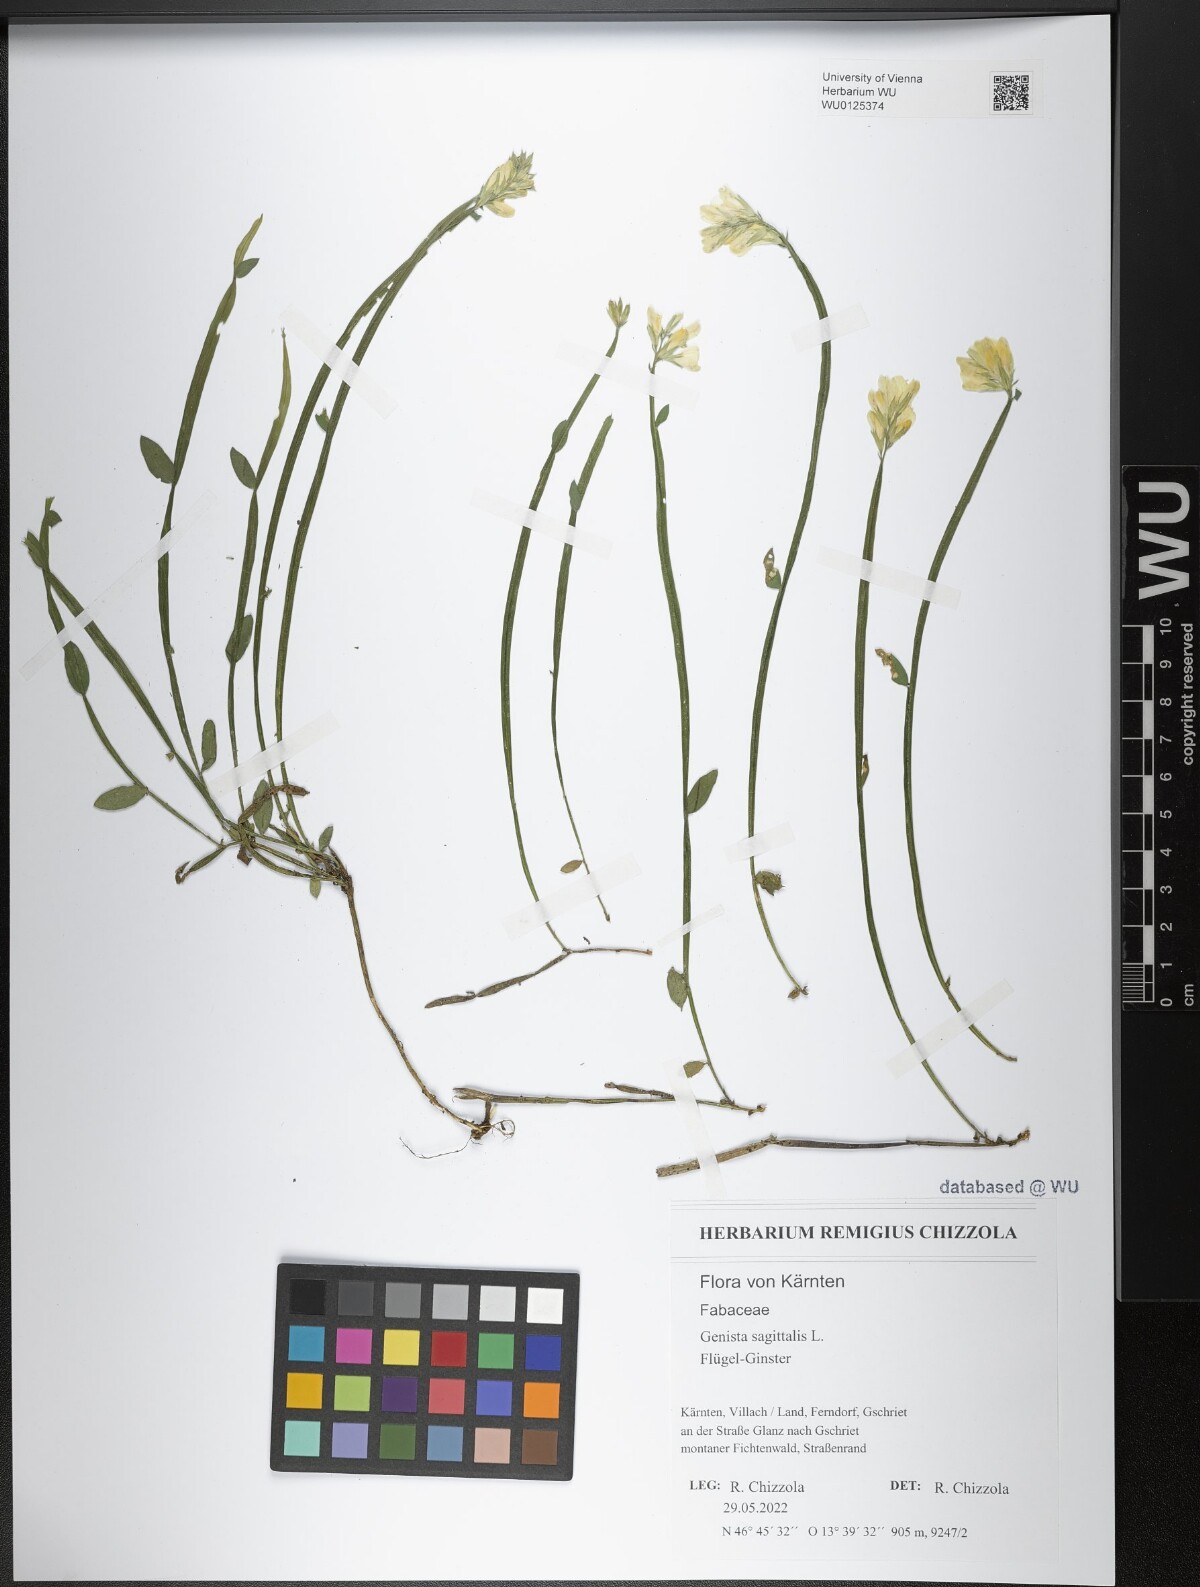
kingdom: Plantae
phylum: Tracheophyta
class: Magnoliopsida
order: Fabales
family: Fabaceae
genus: Genista
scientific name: Genista sagittalis
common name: Winged greenweed
